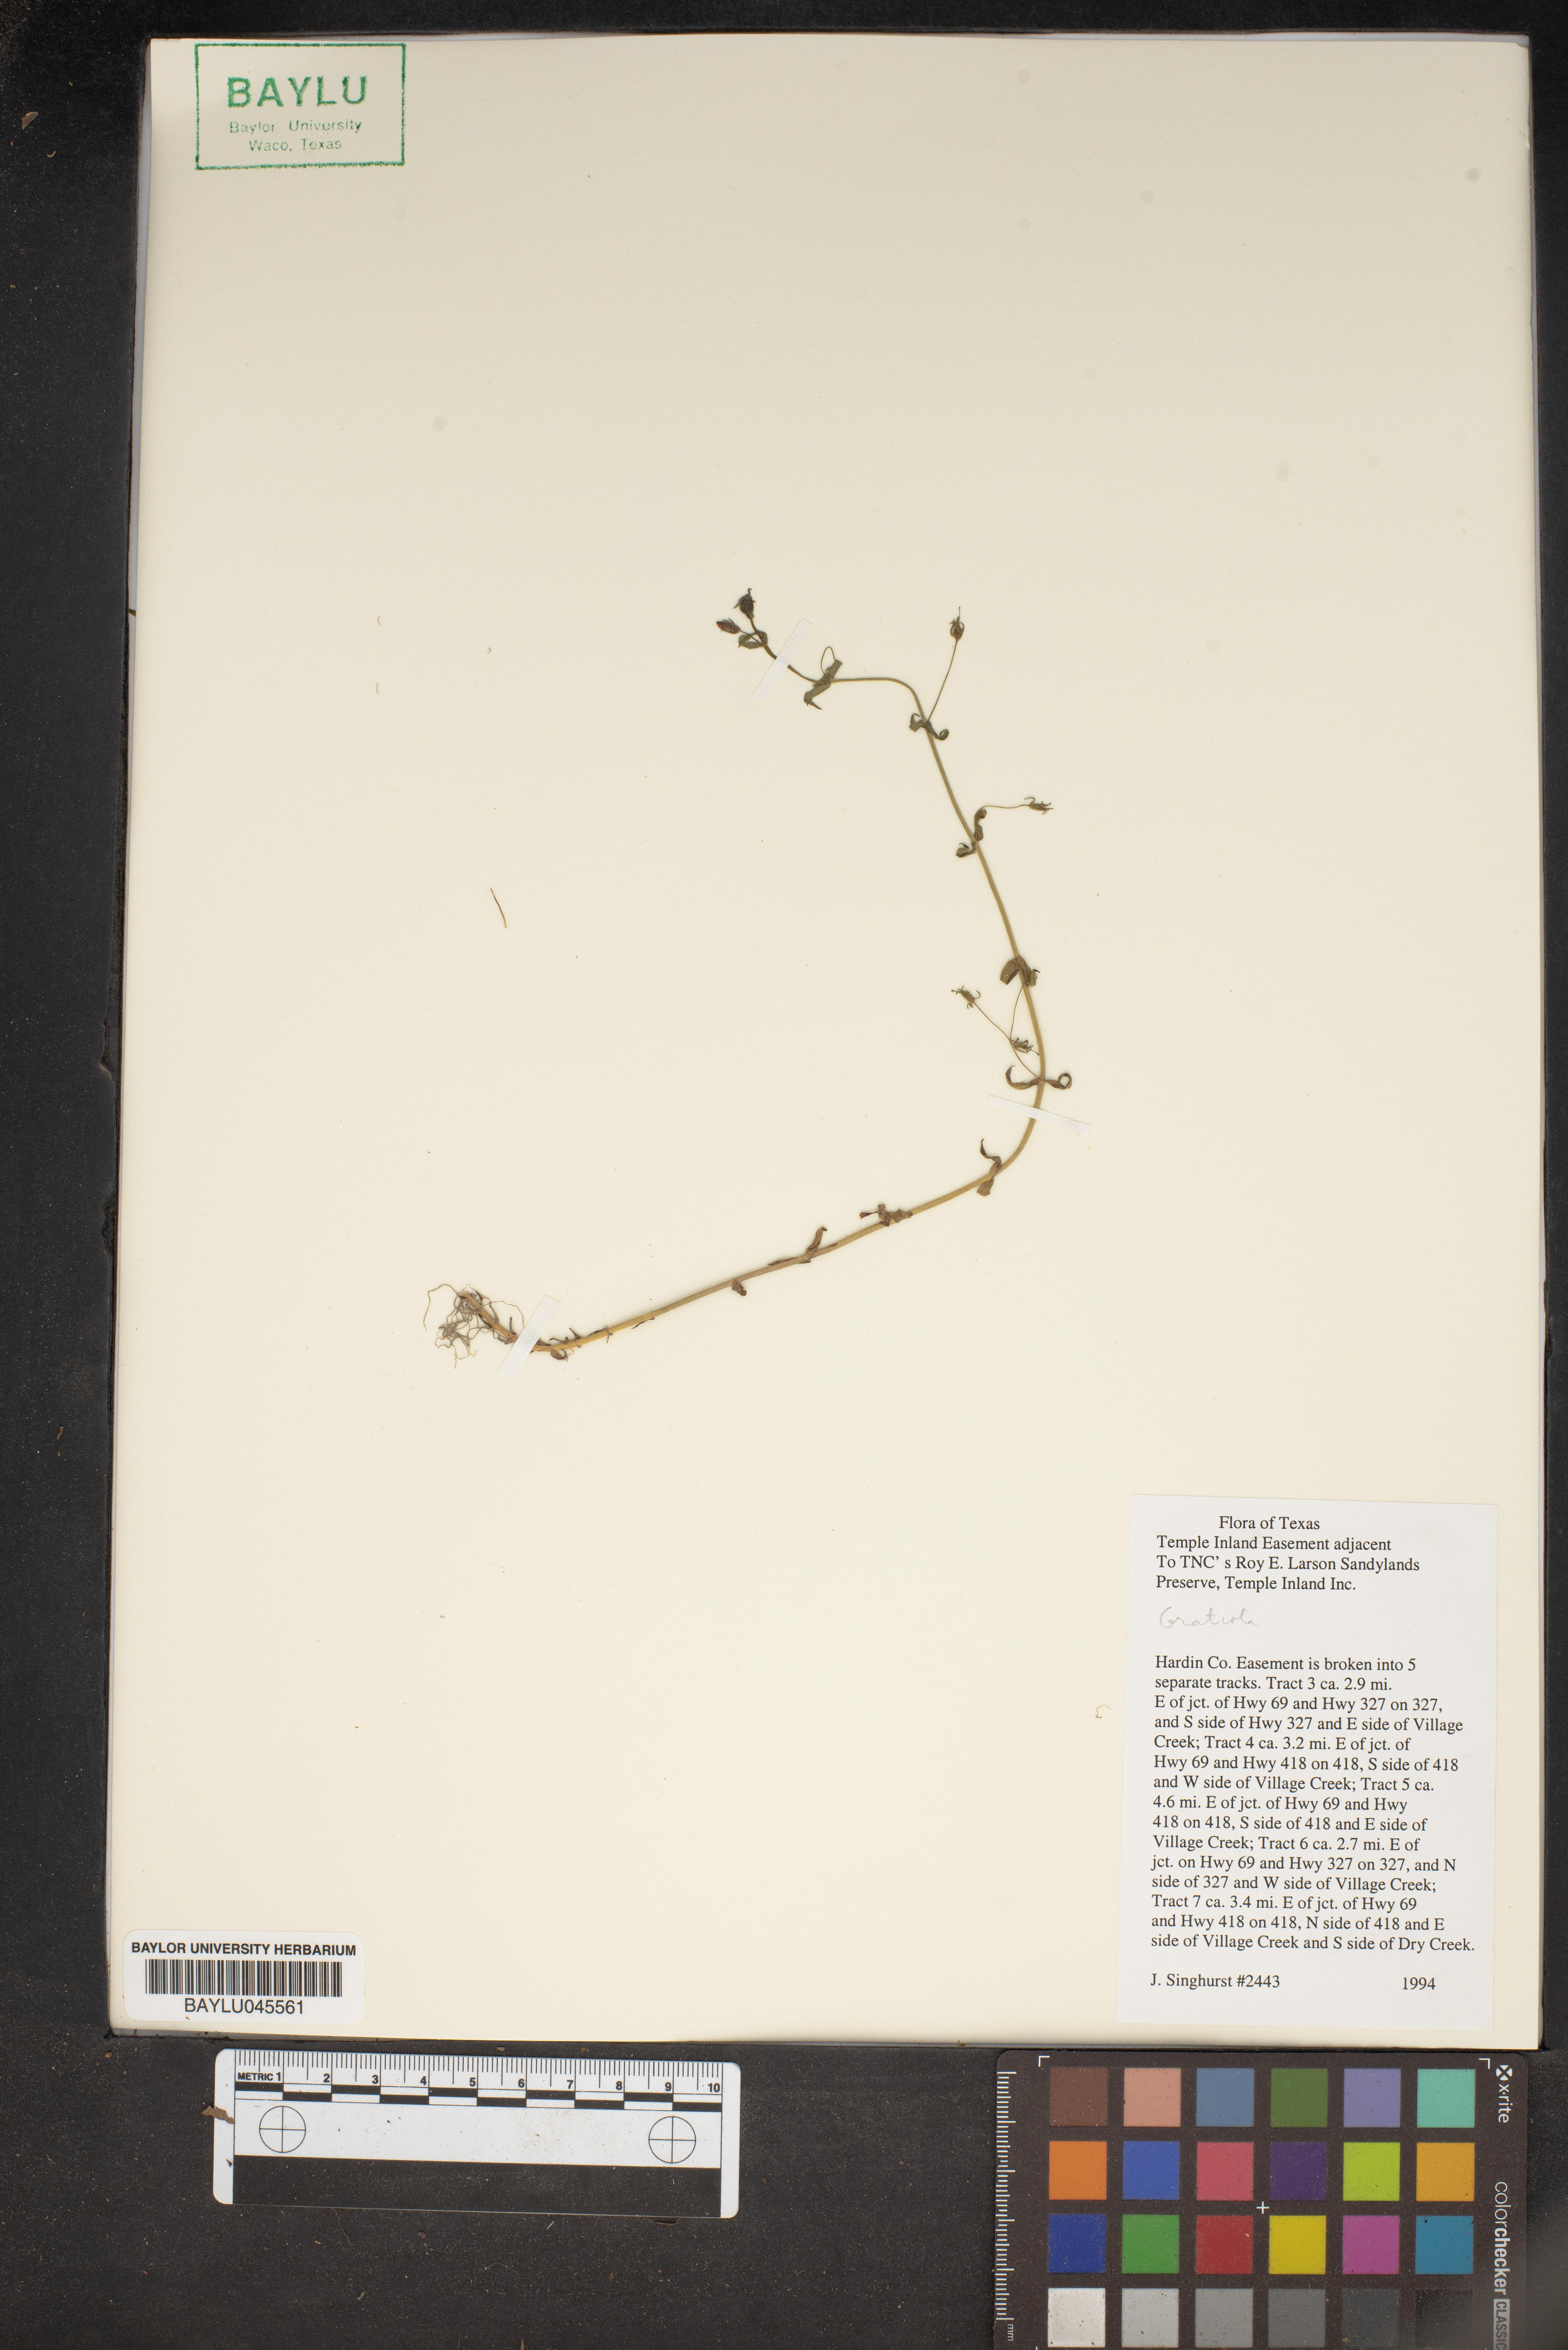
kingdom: Plantae
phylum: Tracheophyta
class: Magnoliopsida
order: Lamiales
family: Plantaginaceae
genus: Gratiola
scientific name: Gratiola
